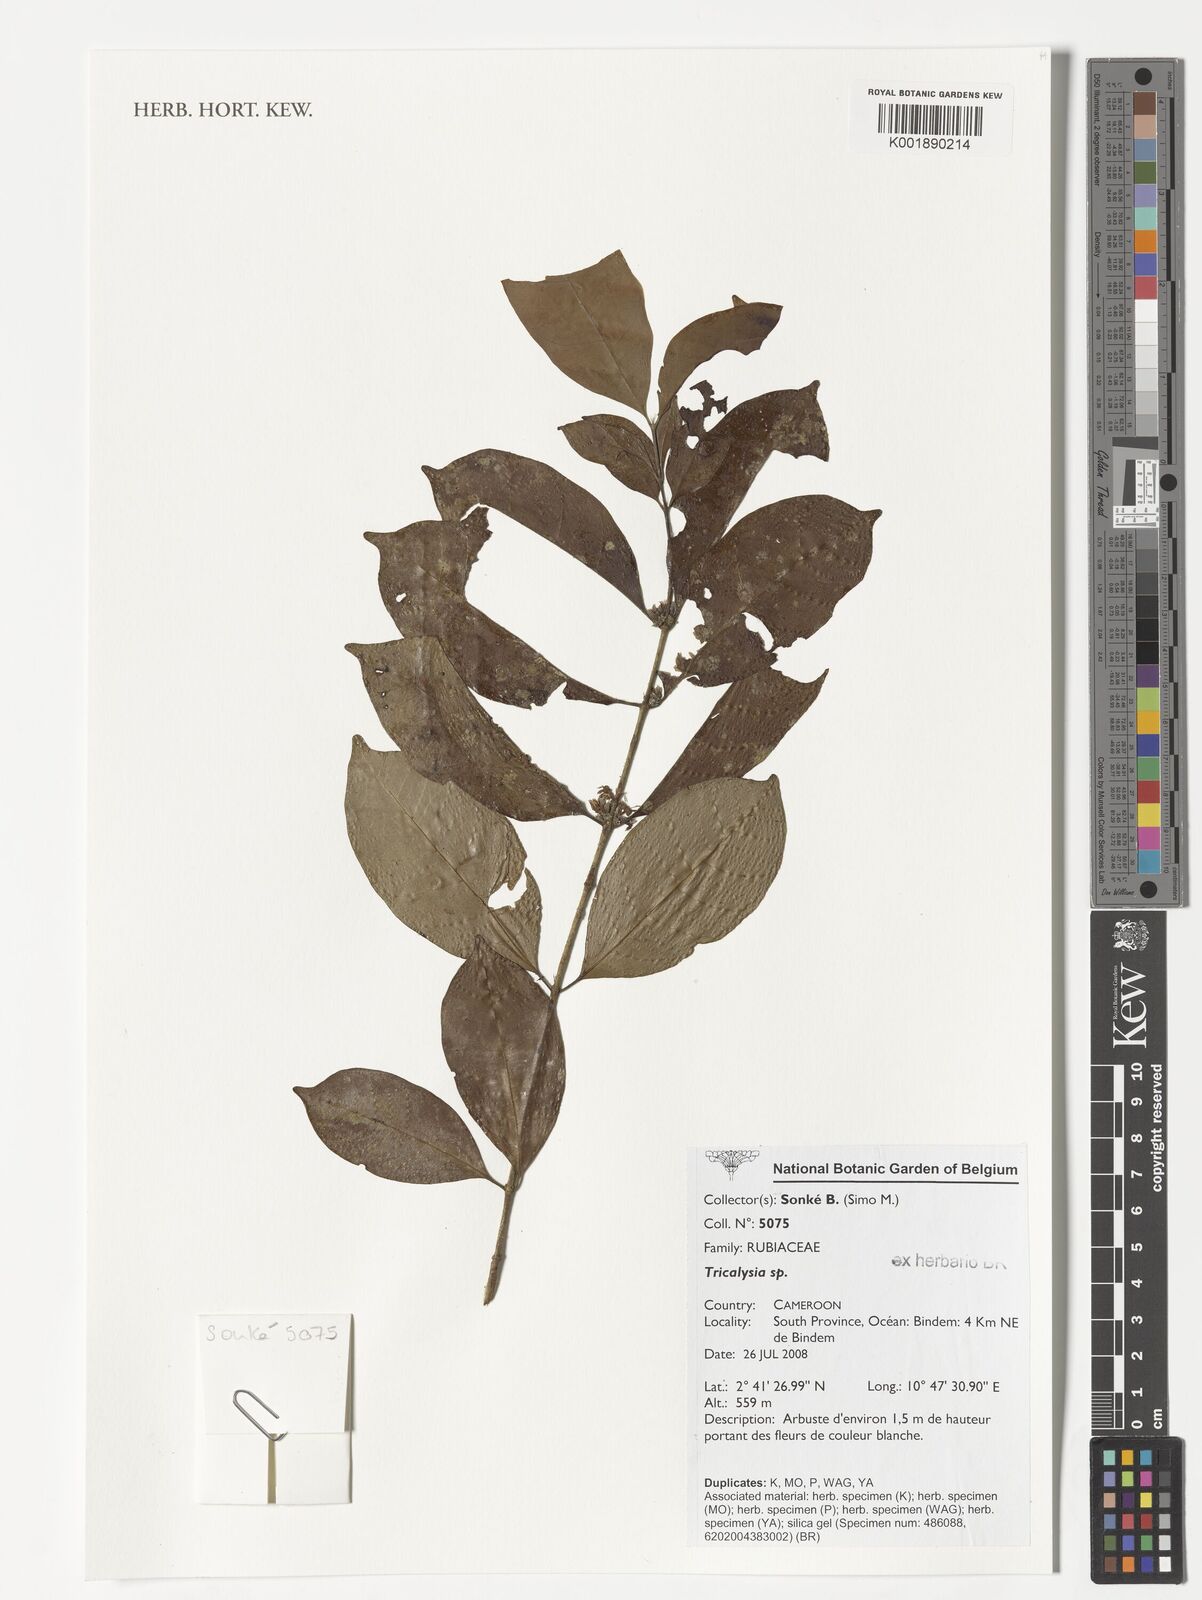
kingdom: Plantae
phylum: Tracheophyta
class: Magnoliopsida
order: Gentianales
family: Rubiaceae
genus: Tricalysia
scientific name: Tricalysia
